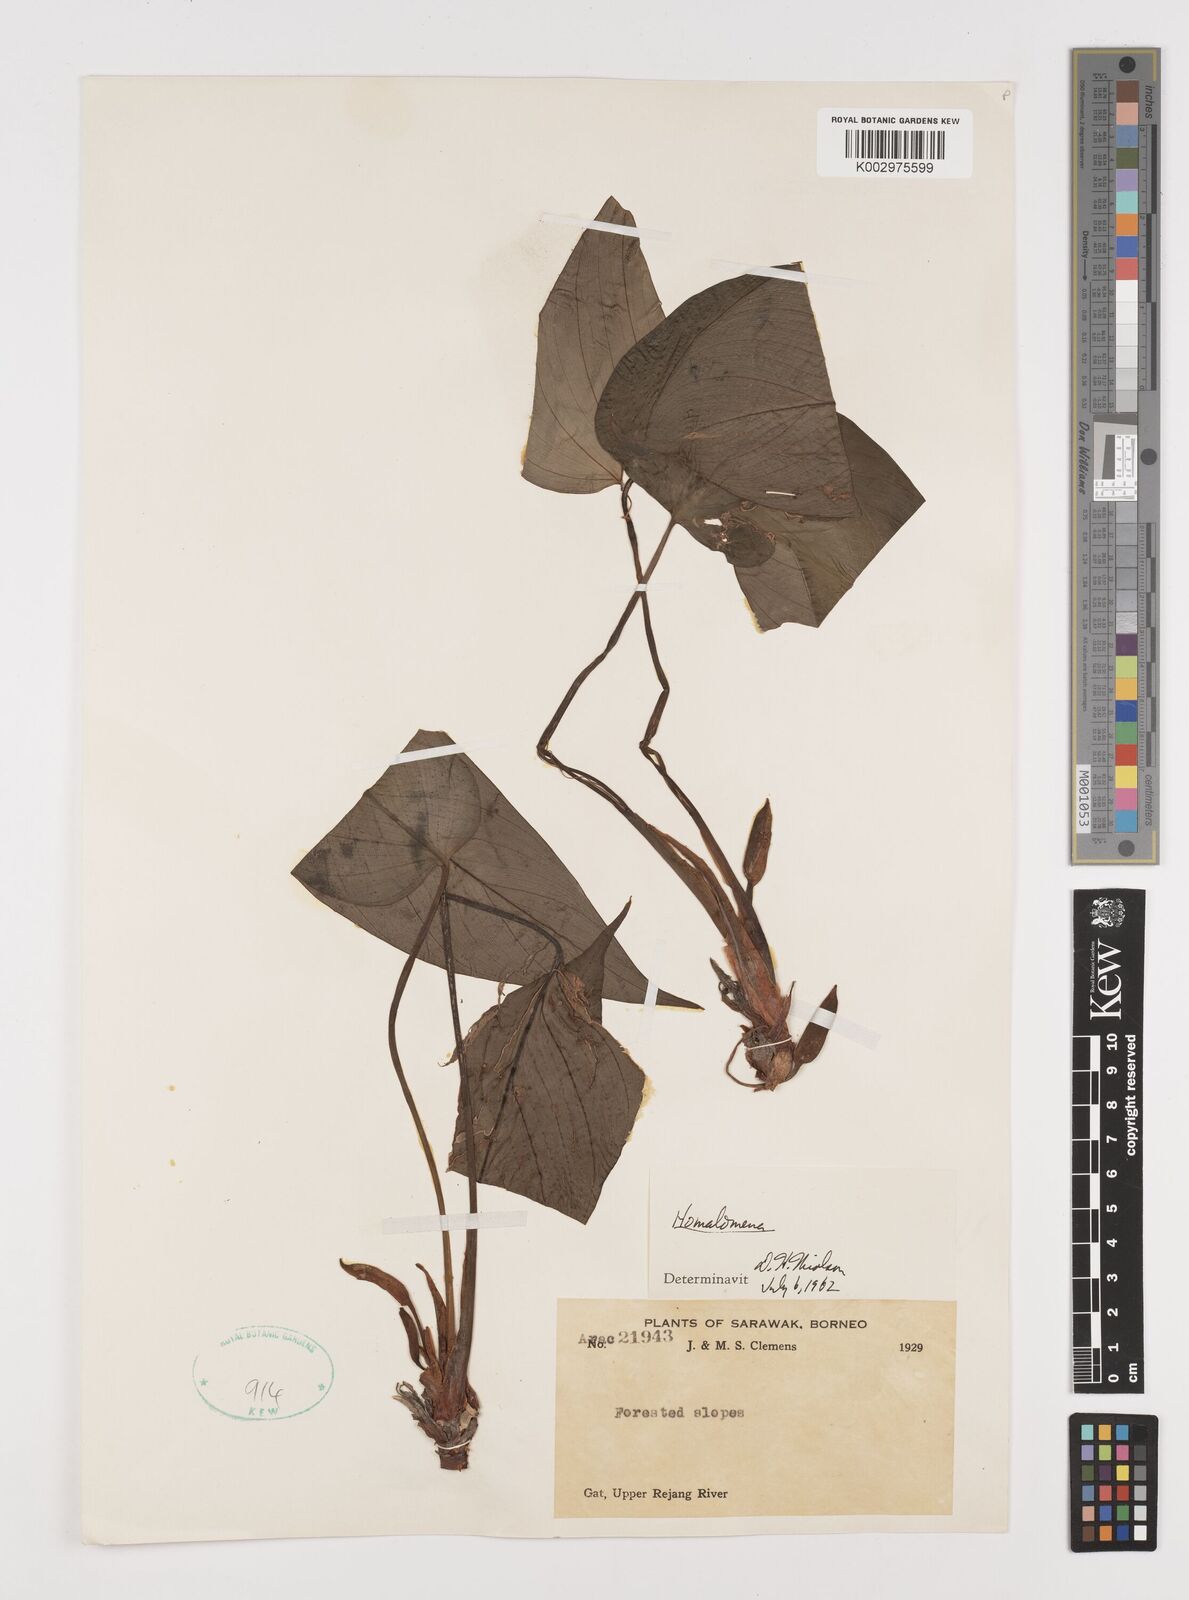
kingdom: Plantae
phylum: Tracheophyta
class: Liliopsida
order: Alismatales
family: Araceae
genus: Homalomena
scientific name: Homalomena
